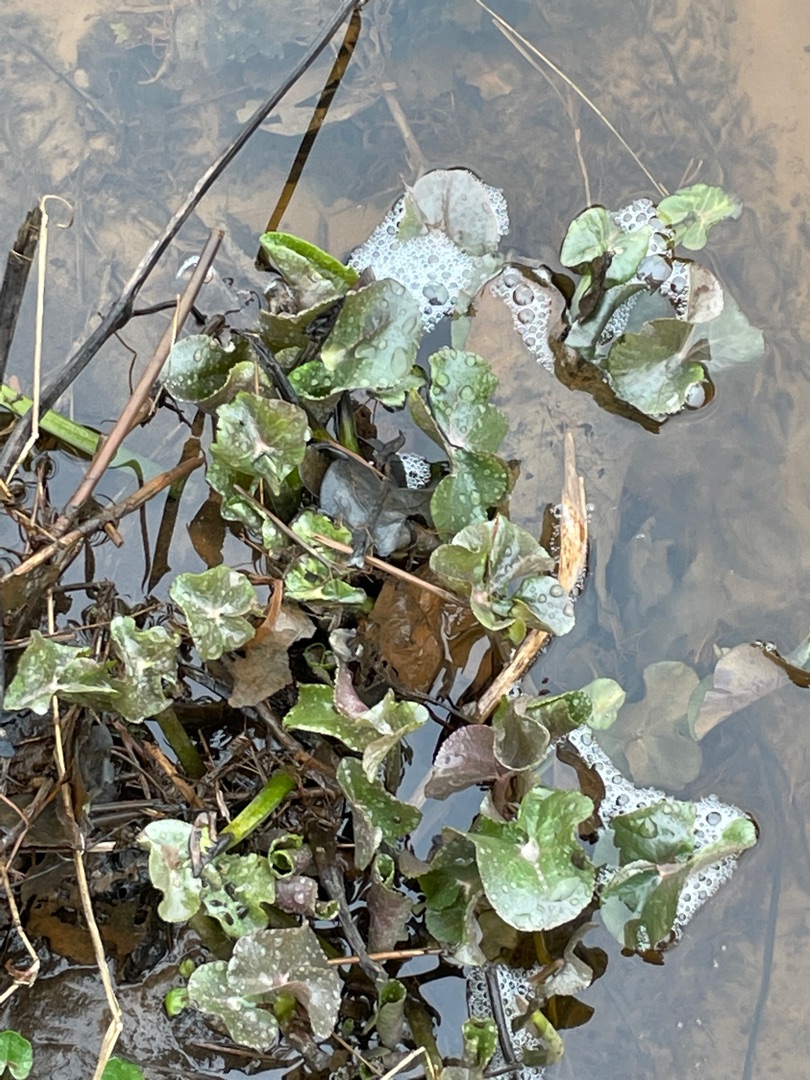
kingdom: Plantae
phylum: Tracheophyta
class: Magnoliopsida
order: Ranunculales
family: Ranunculaceae
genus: Caltha
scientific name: Caltha palustris
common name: Eng-kabbeleje
